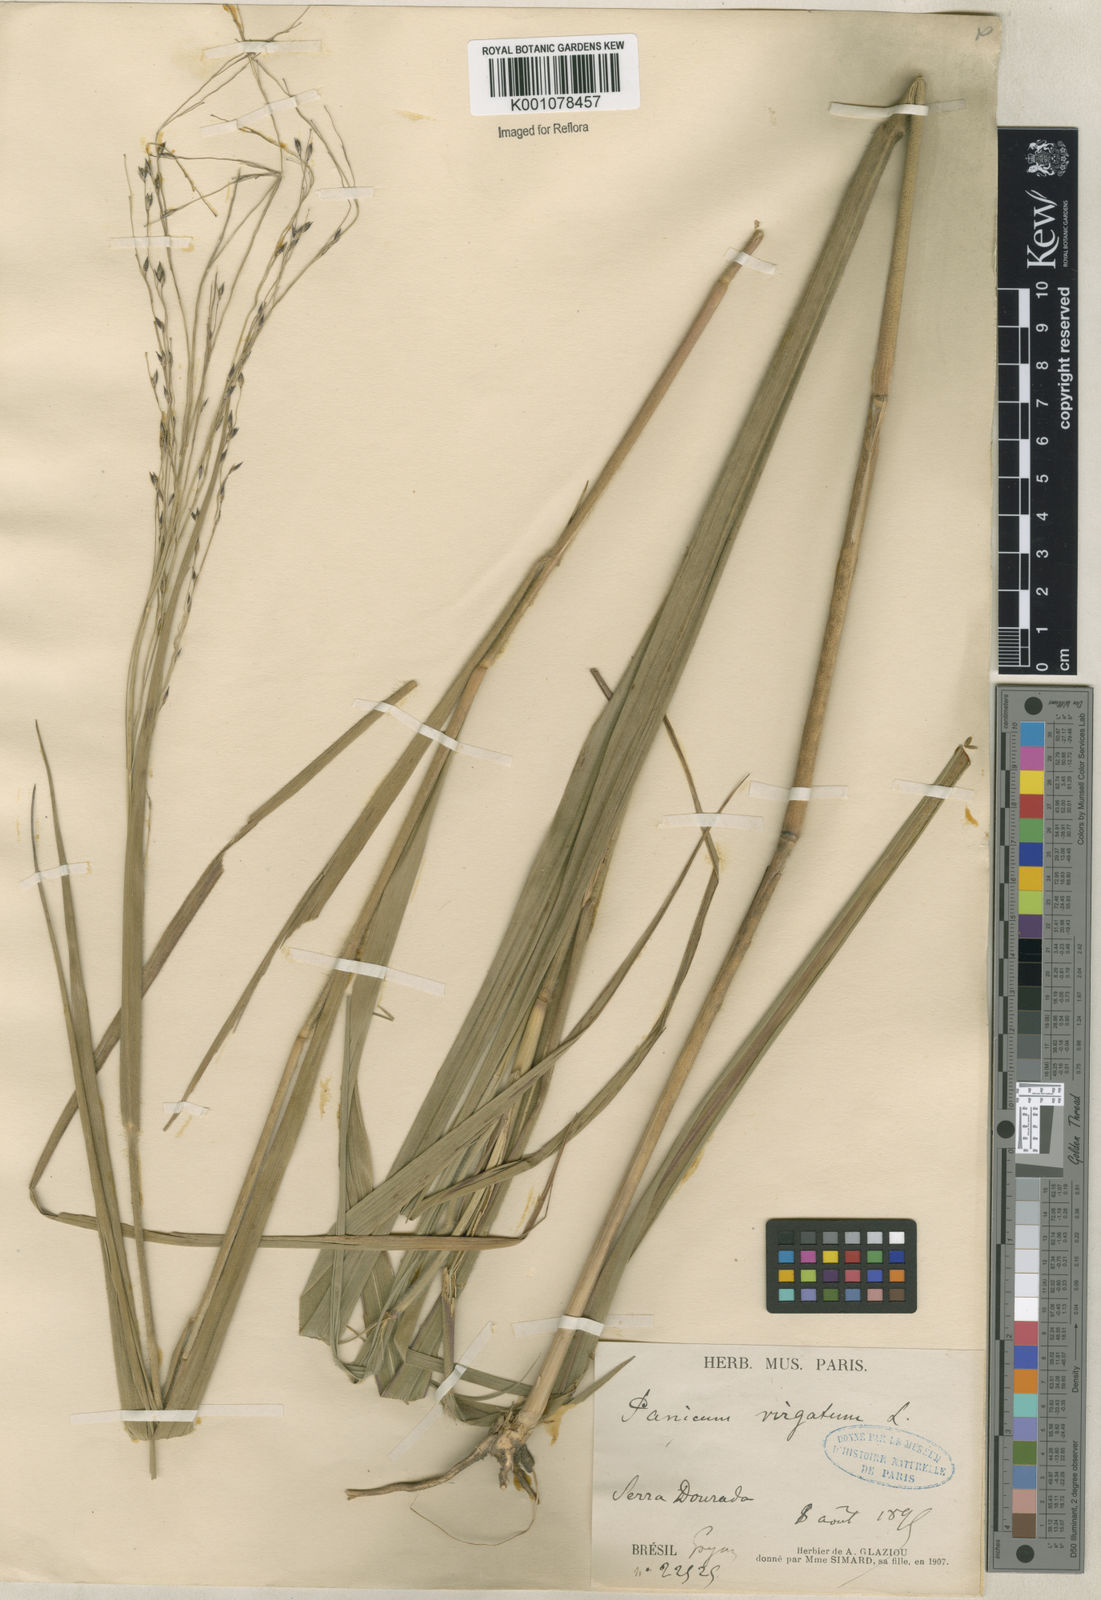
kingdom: Plantae
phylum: Tracheophyta
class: Liliopsida
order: Poales
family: Poaceae
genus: Panicum
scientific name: Panicum virgatum
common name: Switchgrass
